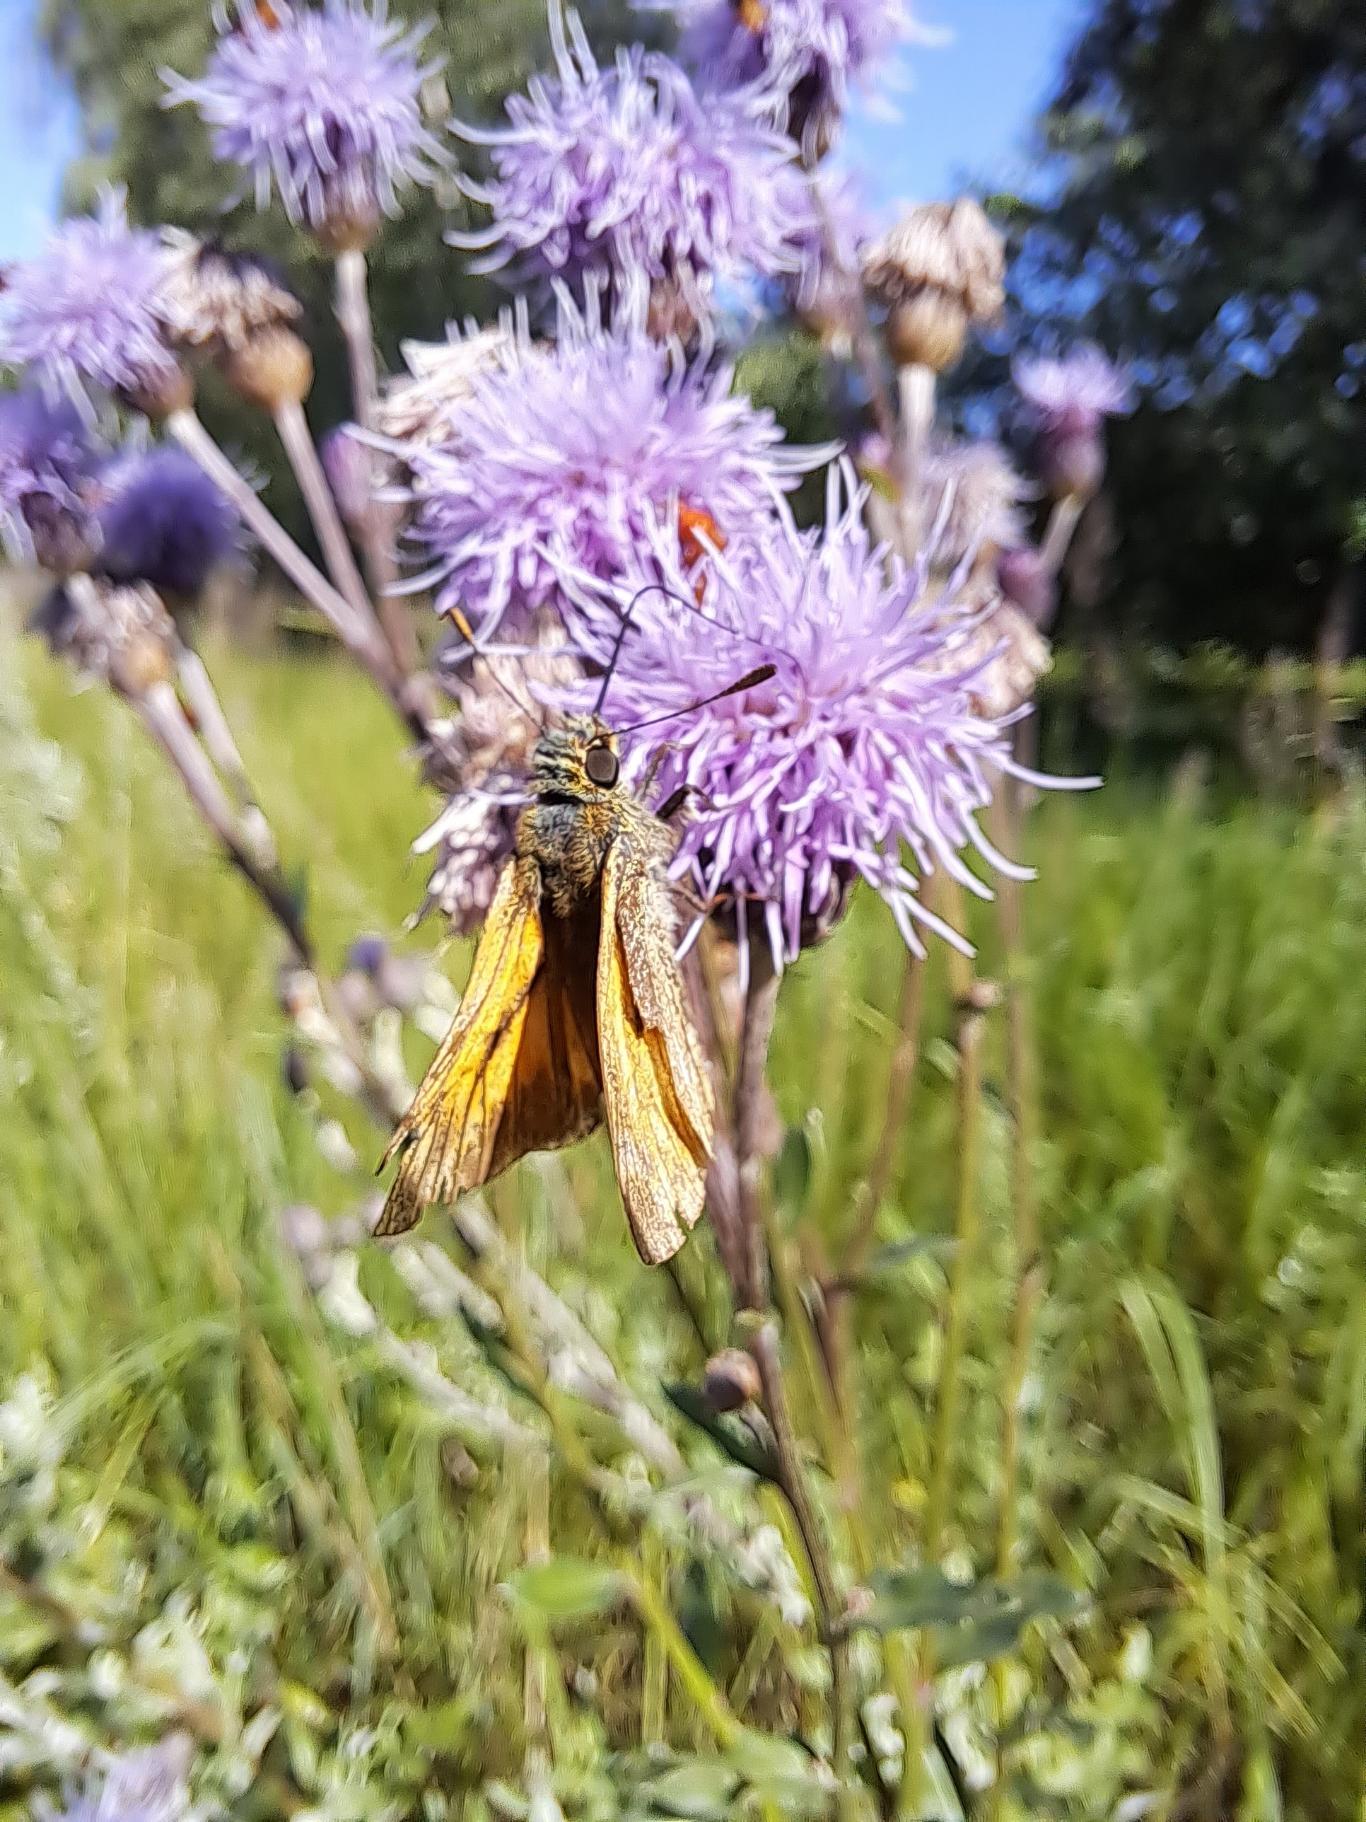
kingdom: Animalia
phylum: Arthropoda
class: Insecta
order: Lepidoptera
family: Hesperiidae
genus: Ochlodes
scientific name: Ochlodes venata
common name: Stor bredpande
